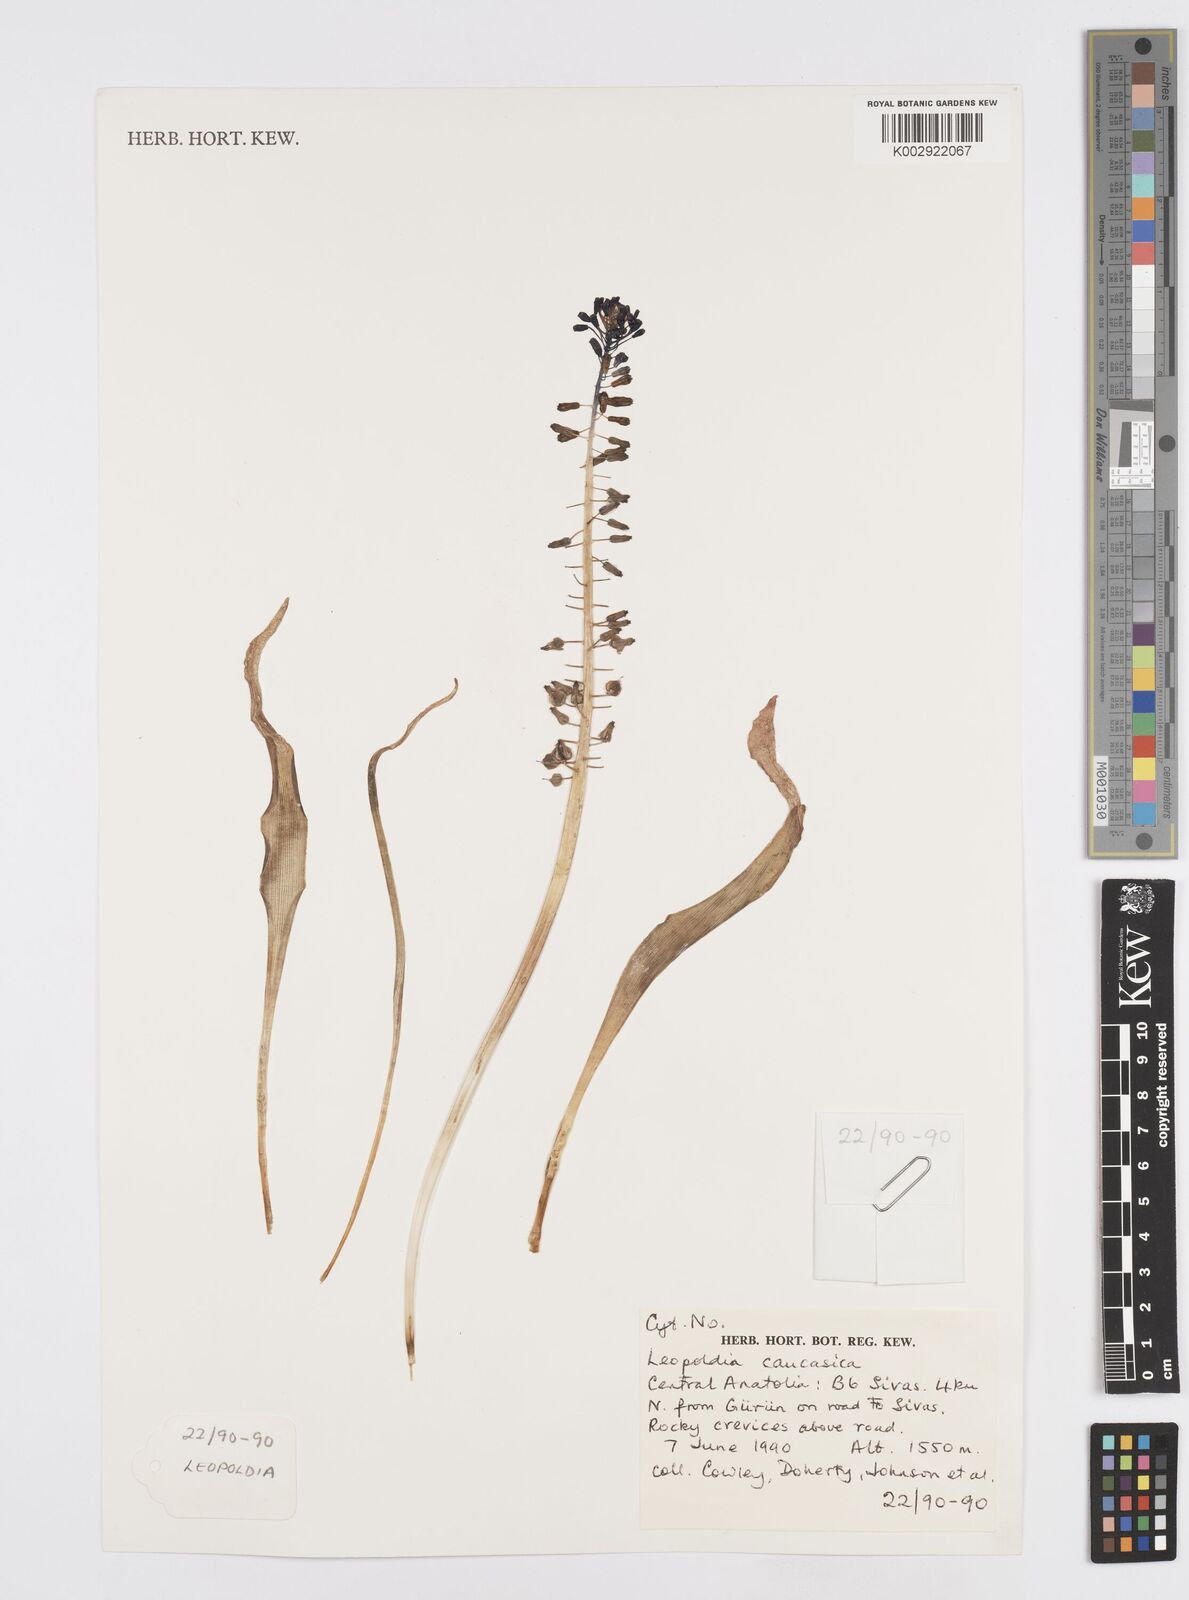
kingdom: Plantae
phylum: Tracheophyta
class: Liliopsida
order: Asparagales
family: Asparagaceae
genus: Muscari
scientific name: Muscari caucasicum
